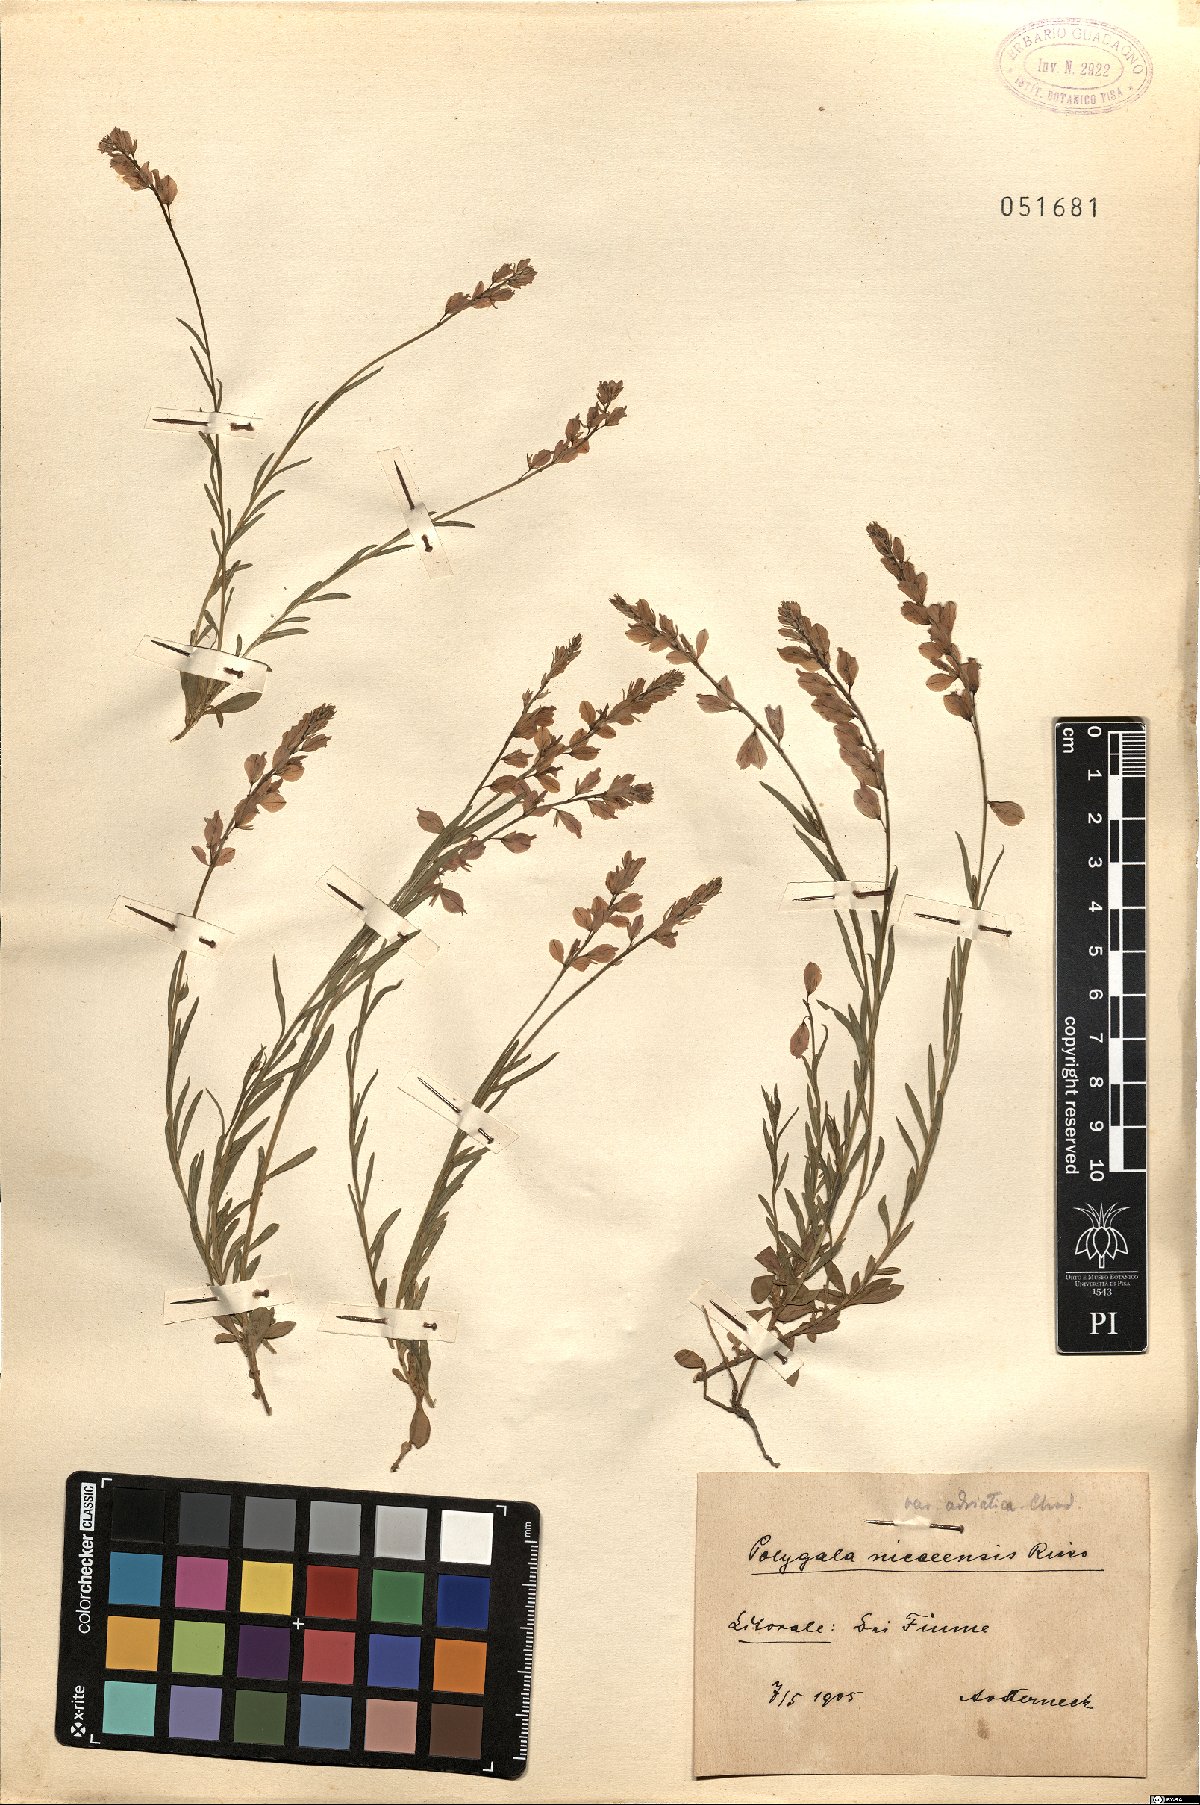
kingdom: Plantae
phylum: Tracheophyta
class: Magnoliopsida
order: Fabales
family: Polygalaceae
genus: Polygala
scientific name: Polygala forojulensis
